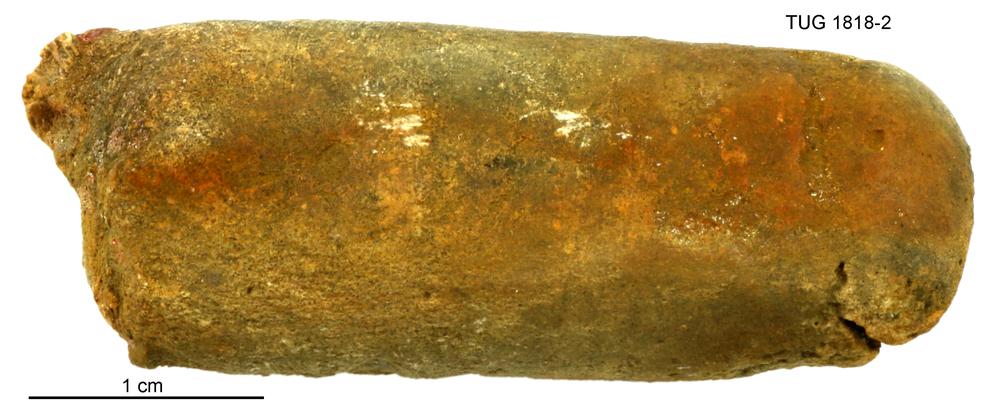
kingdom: Animalia
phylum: Mollusca
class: Cephalopoda
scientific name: Cephalopoda
